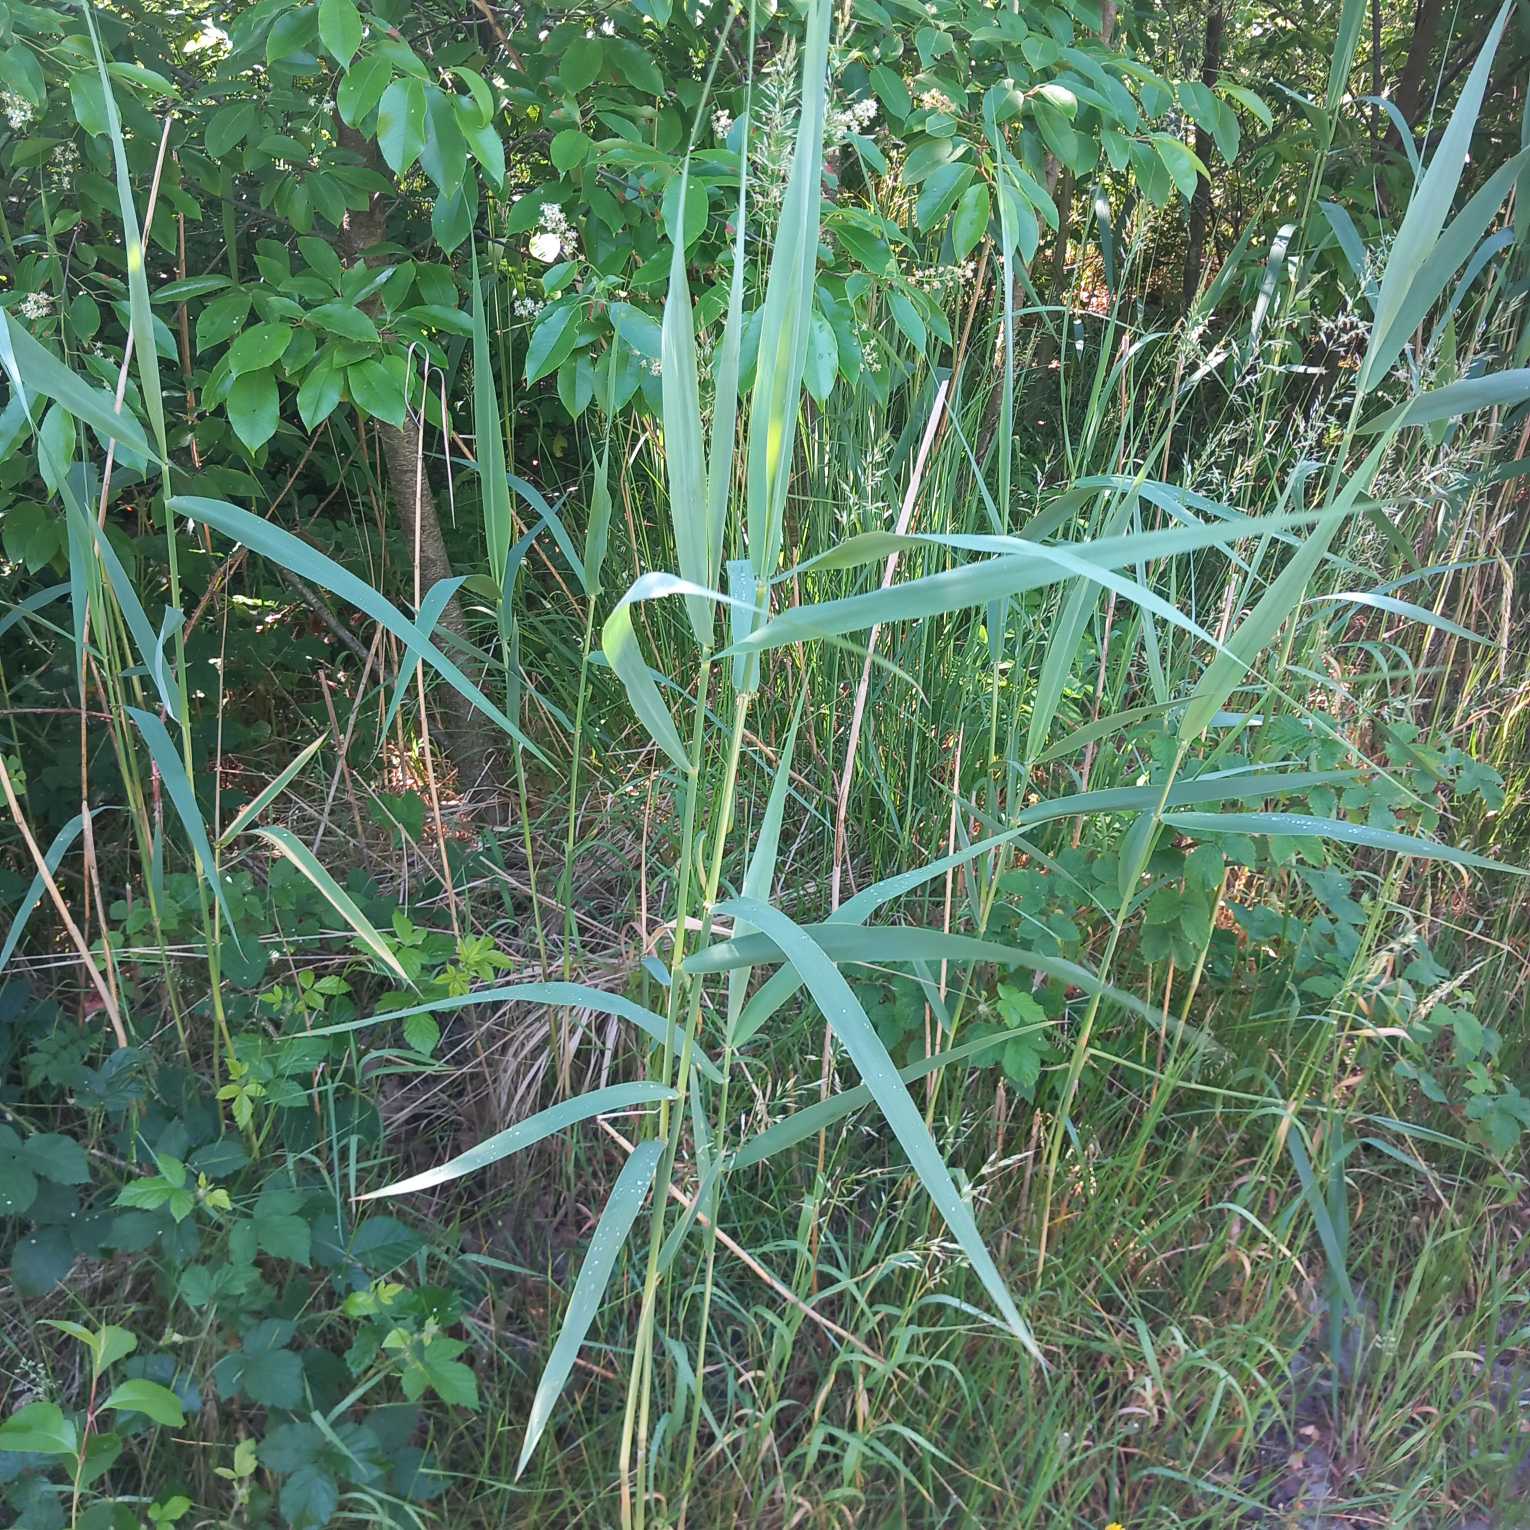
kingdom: Plantae
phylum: Tracheophyta
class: Liliopsida
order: Poales
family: Poaceae
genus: Phragmites
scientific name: Phragmites australis
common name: Tagrør
